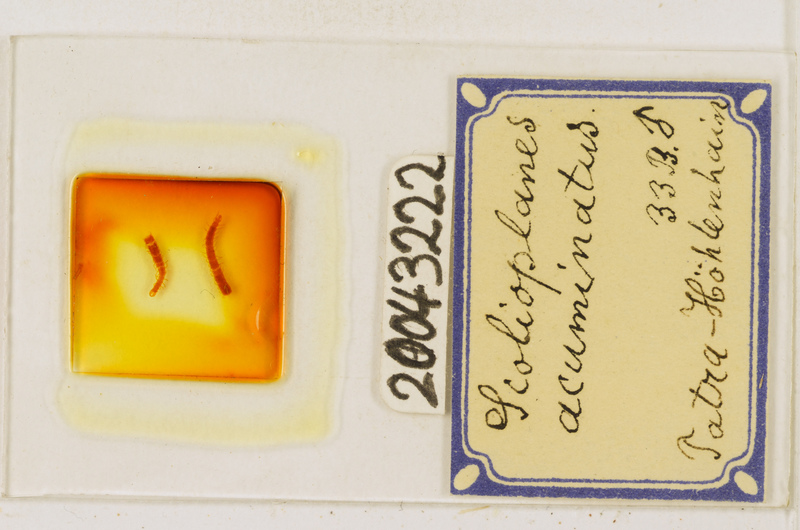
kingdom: Animalia
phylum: Arthropoda
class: Chilopoda
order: Geophilomorpha
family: Linotaeniidae
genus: Strigamia
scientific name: Strigamia acuminata
